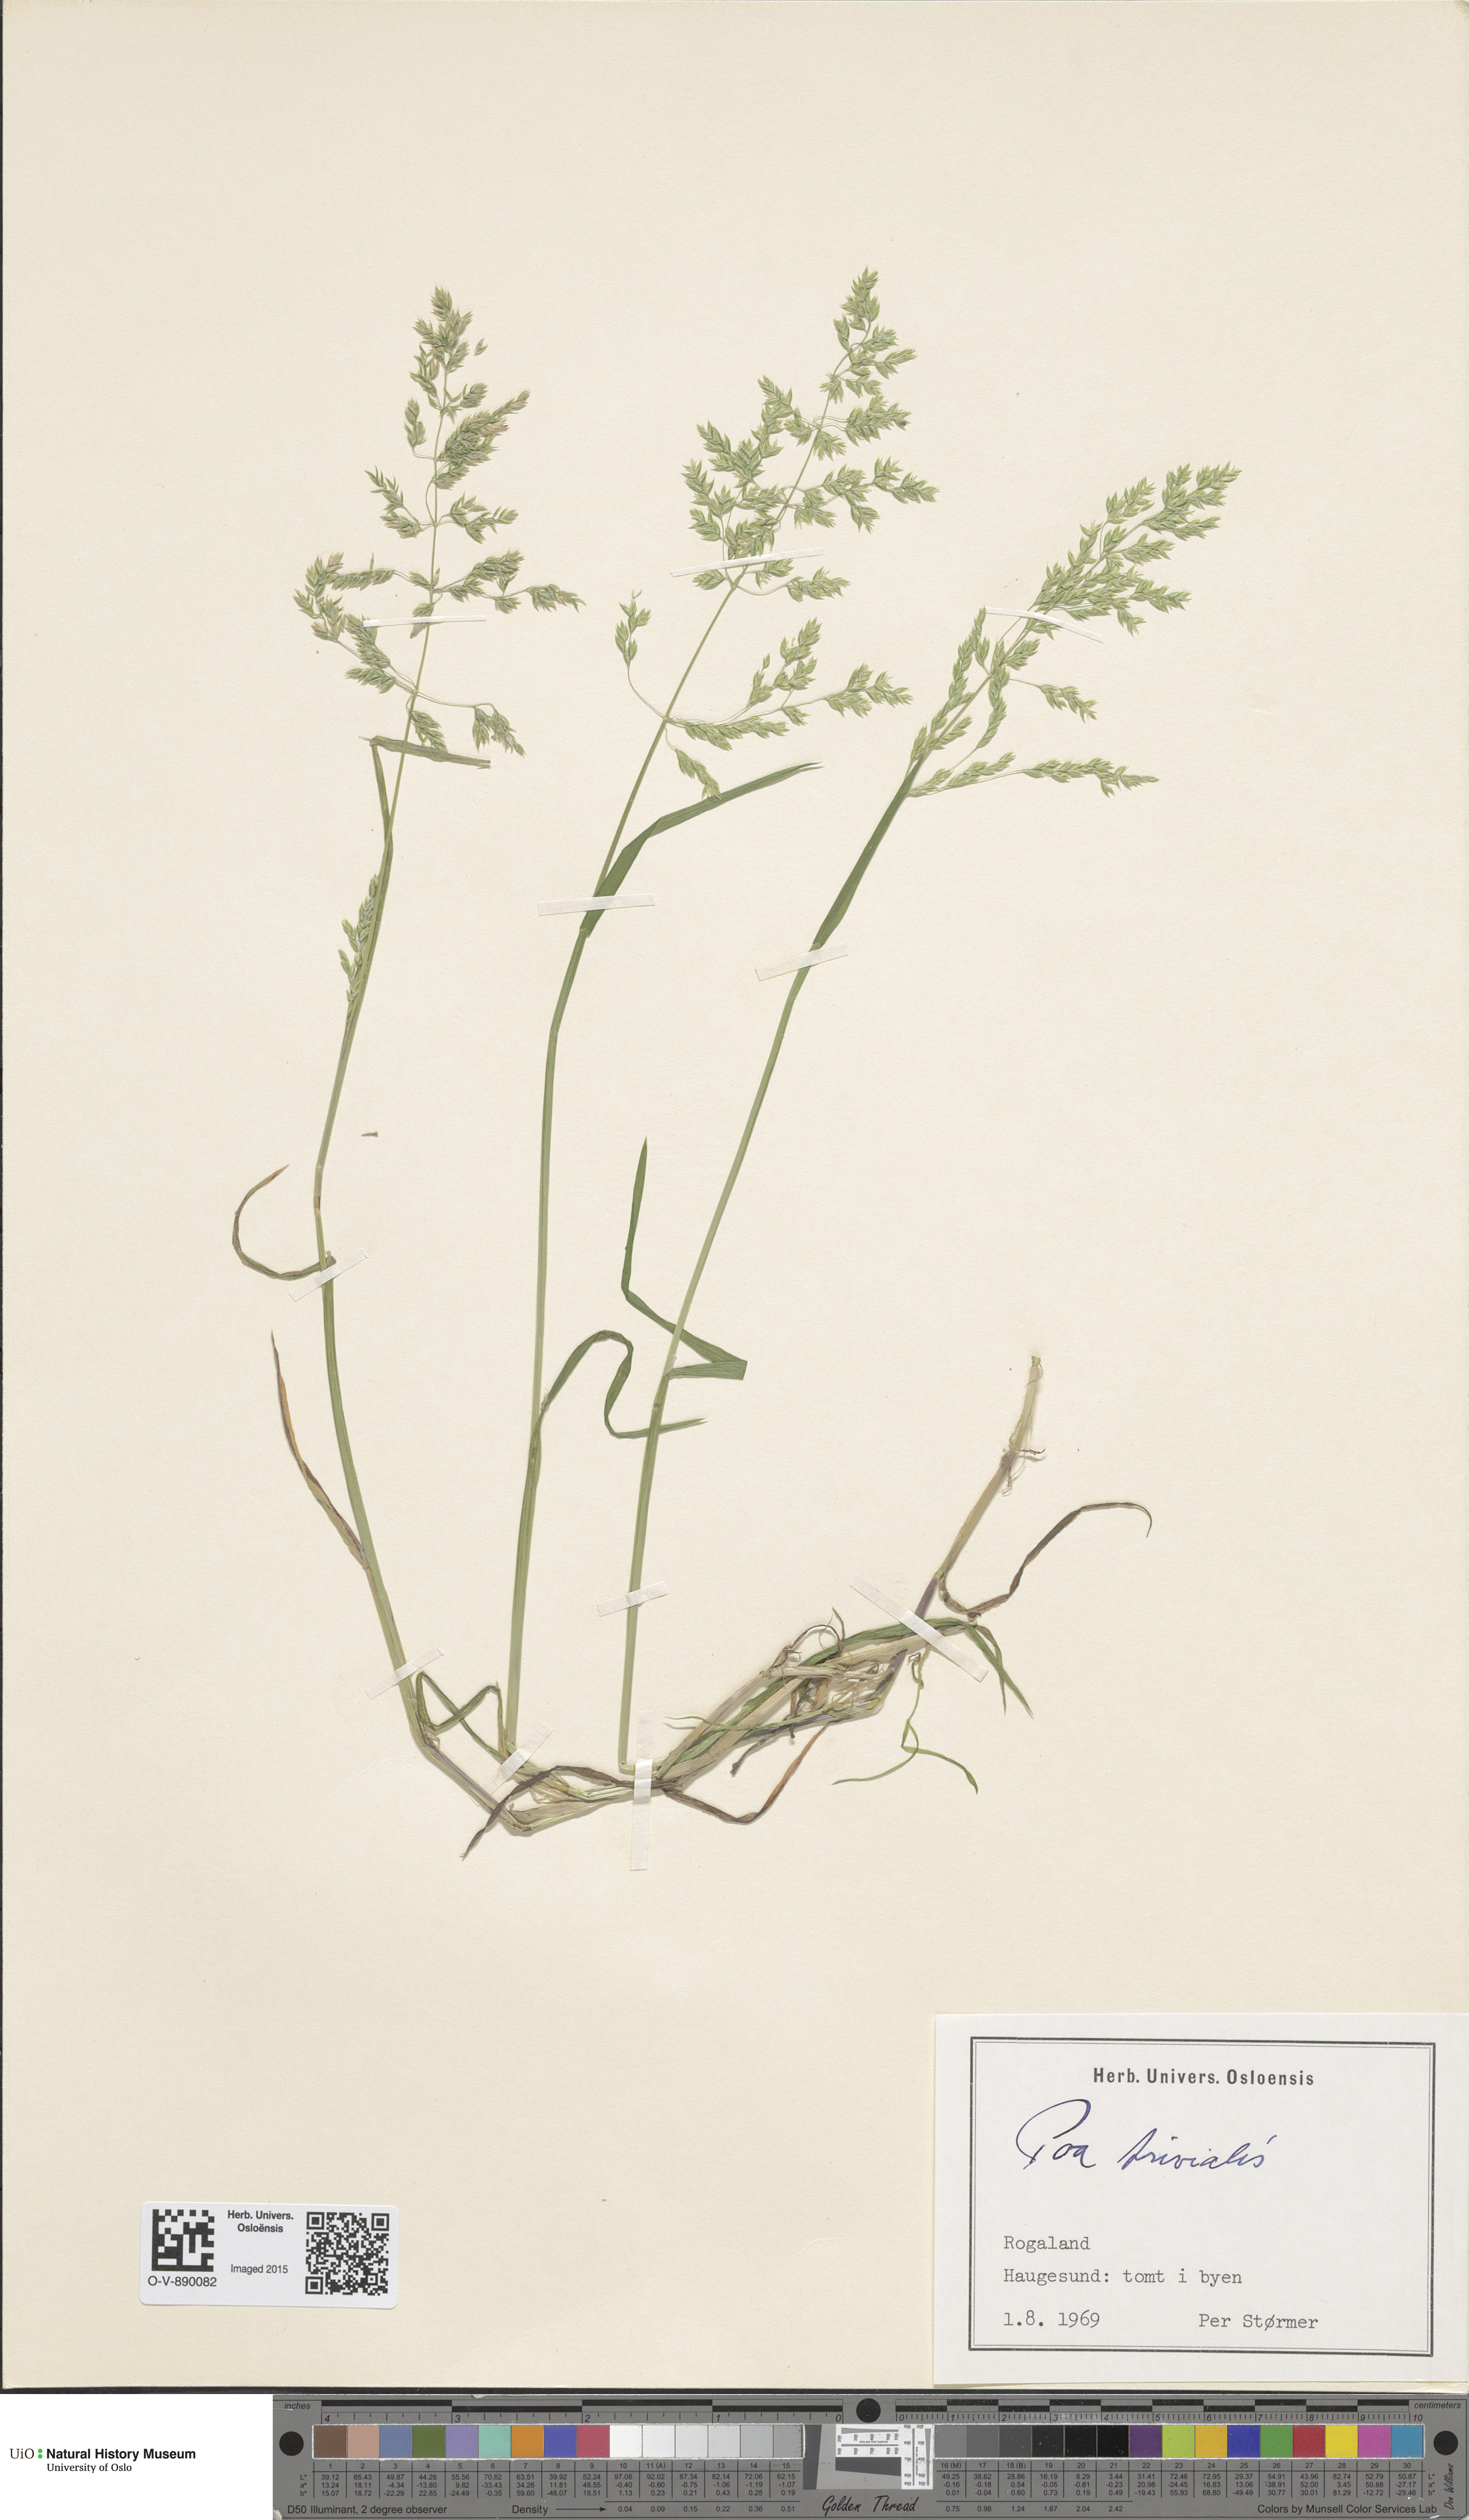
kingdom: Plantae
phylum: Tracheophyta
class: Liliopsida
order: Poales
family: Poaceae
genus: Poa
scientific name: Poa trivialis
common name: Rough bluegrass
